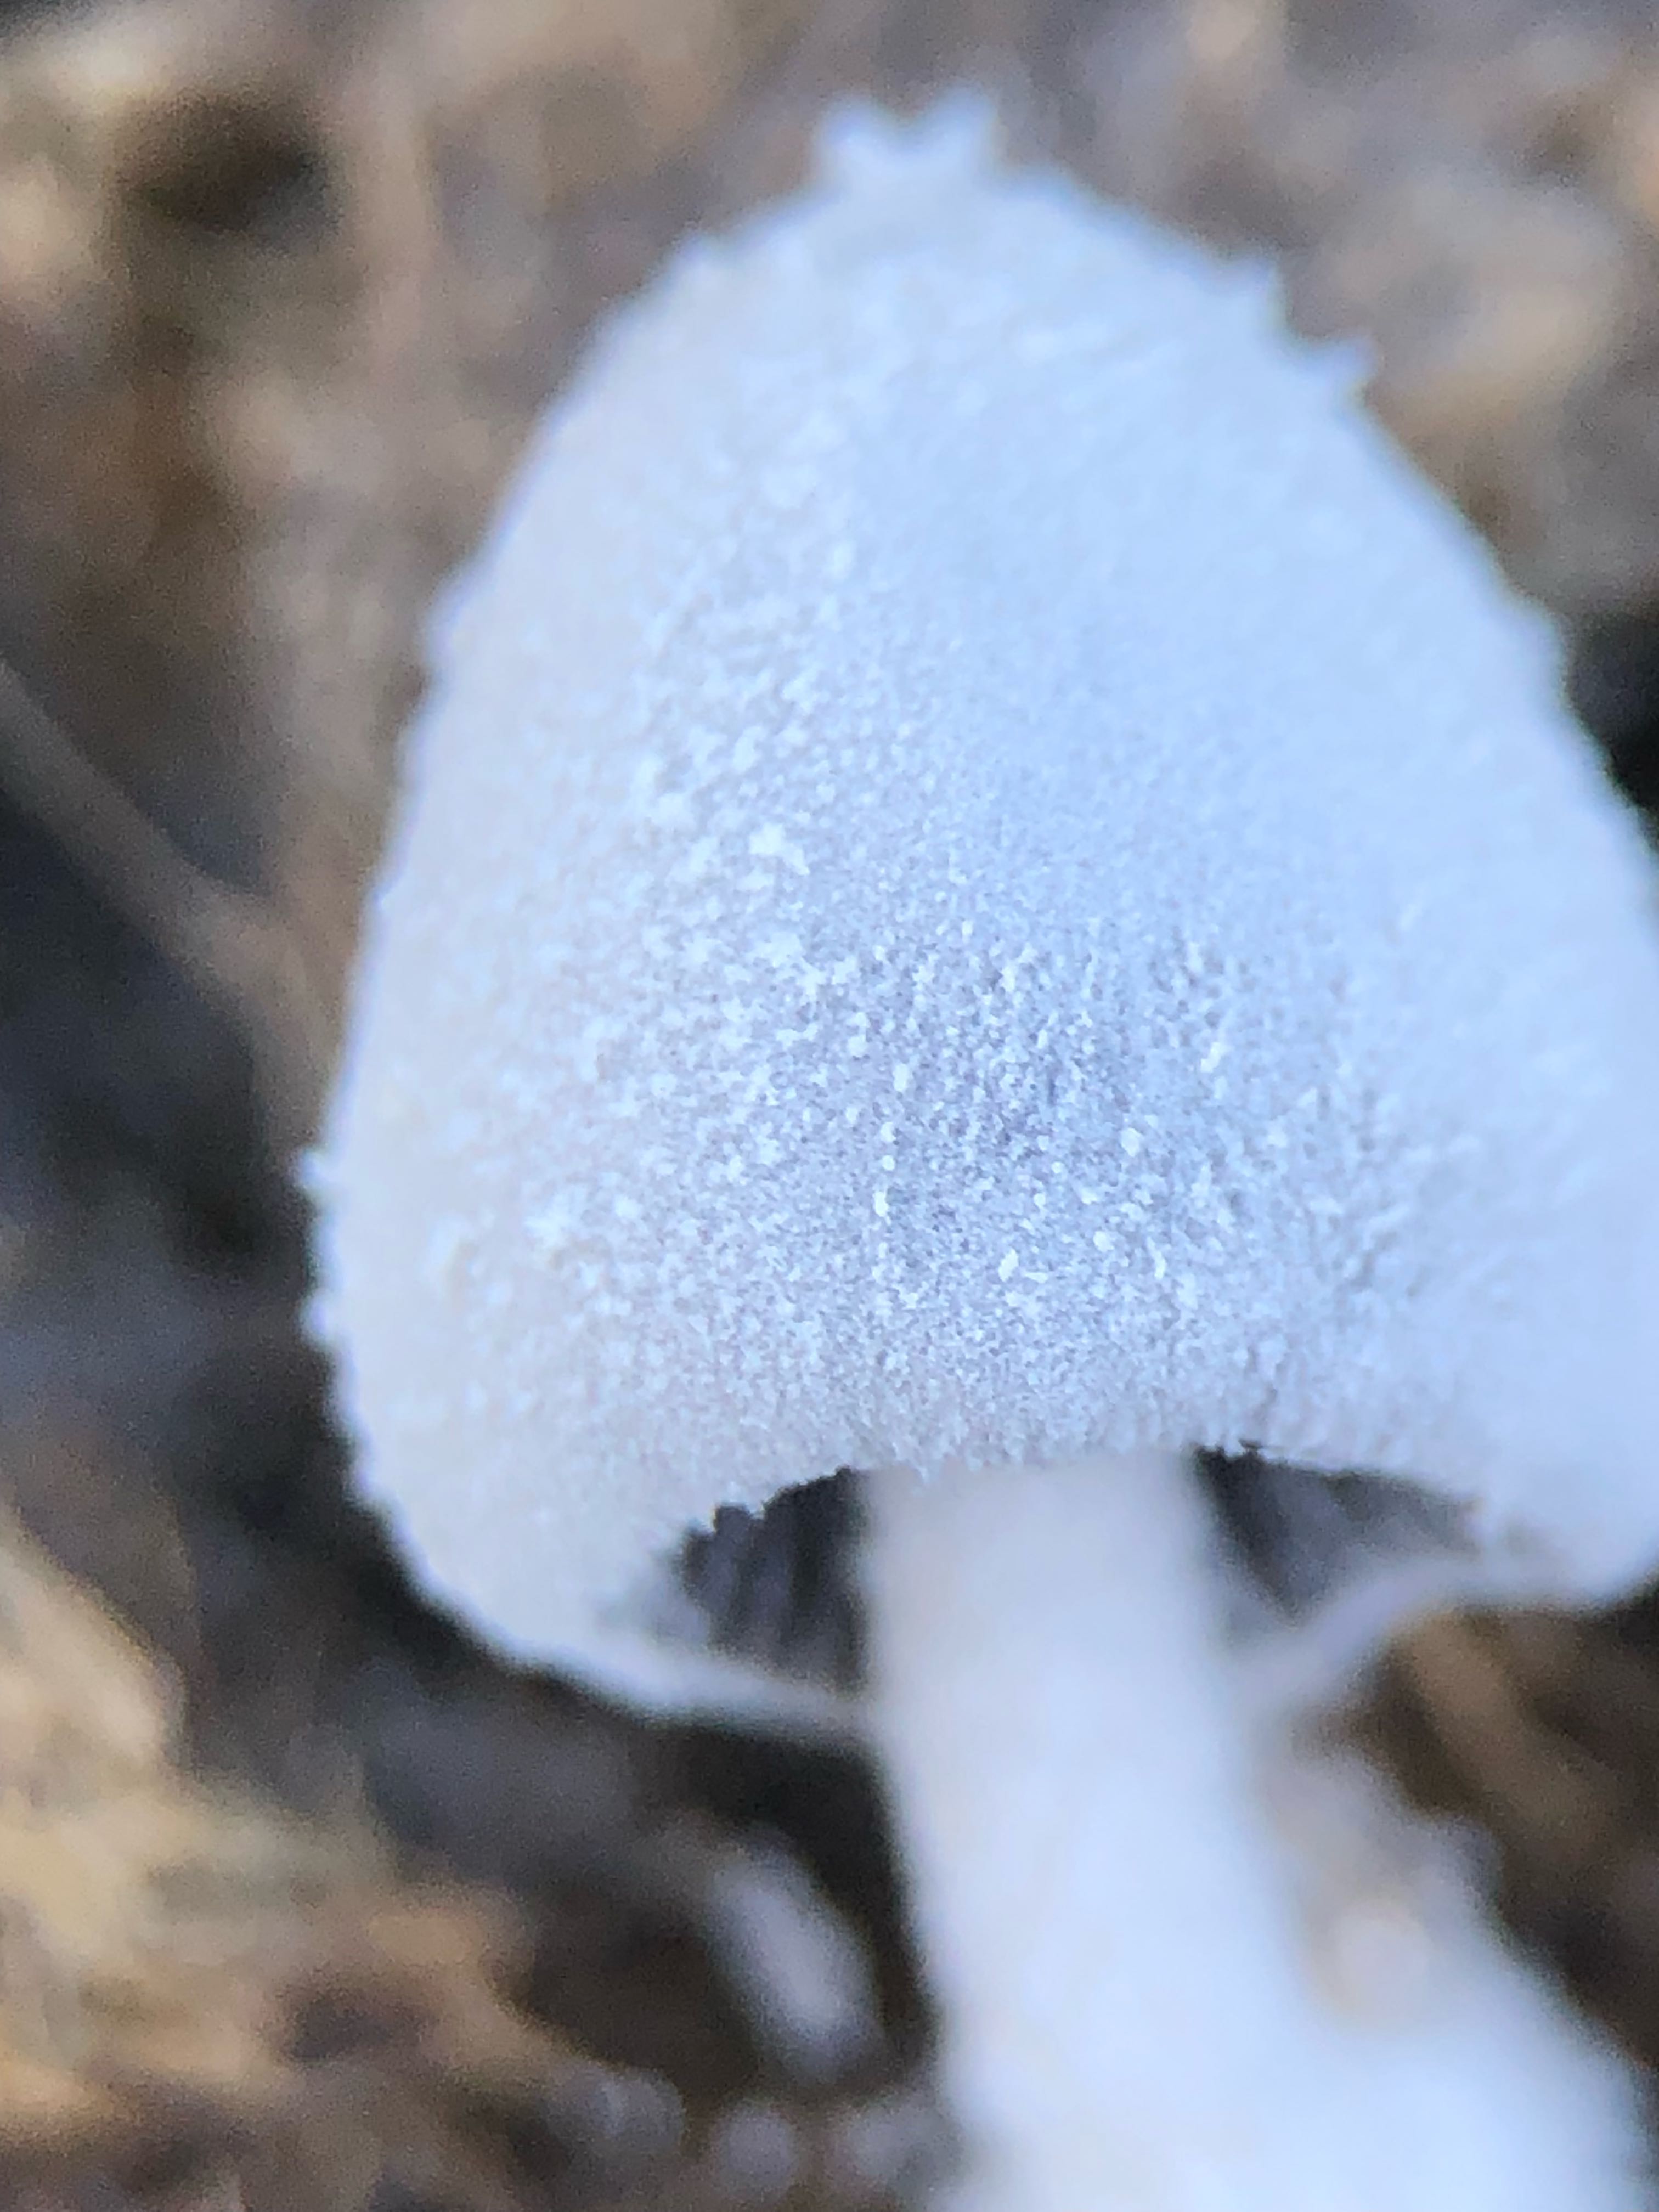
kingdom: Fungi
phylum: Basidiomycota
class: Agaricomycetes
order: Agaricales
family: Psathyrellaceae
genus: Coprinopsis
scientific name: Coprinopsis nivea
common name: snehvid blækhat
